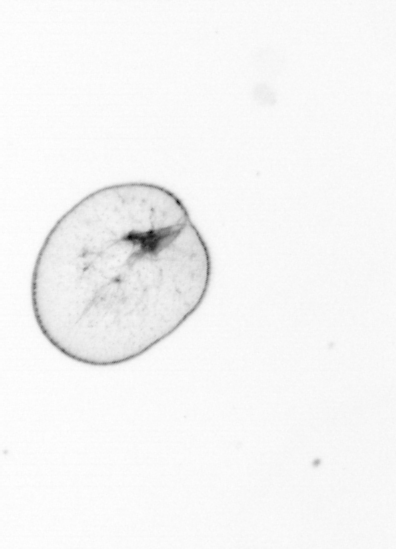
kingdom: Chromista
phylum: Myzozoa
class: Dinophyceae
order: Noctilucales
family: Noctilucaceae
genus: Noctiluca
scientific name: Noctiluca scintillans
